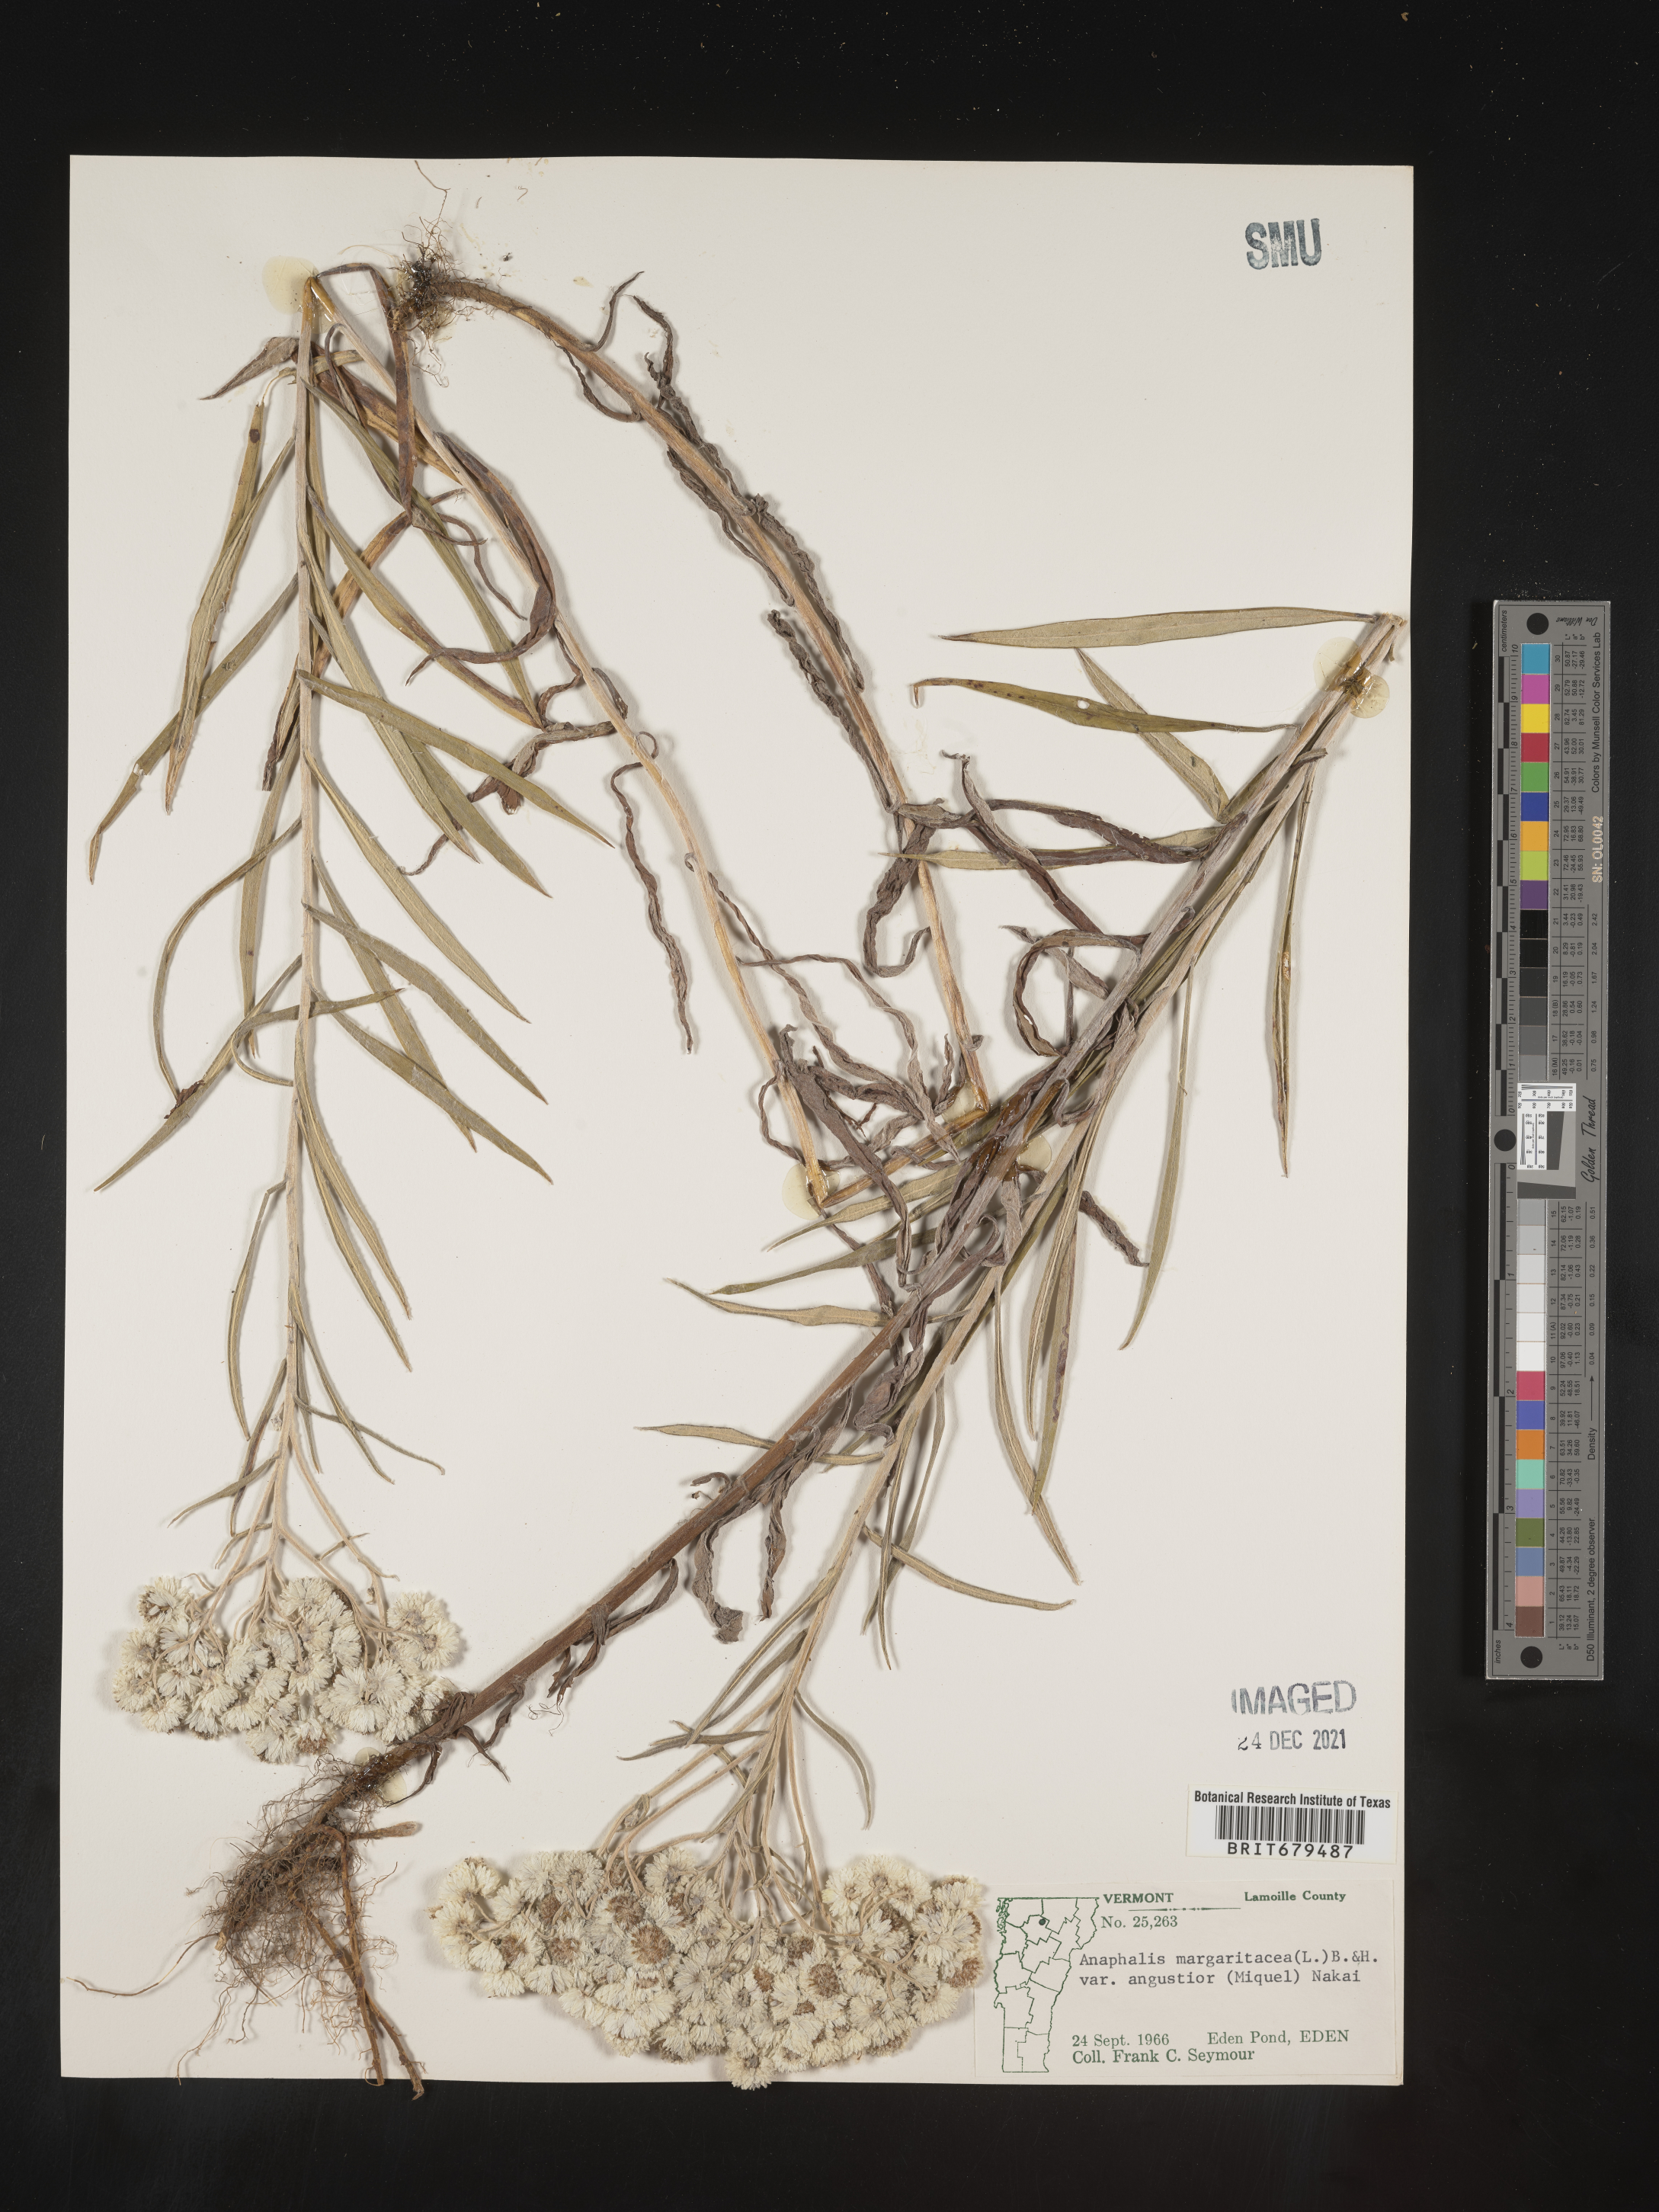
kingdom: Plantae
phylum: Tracheophyta
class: Magnoliopsida
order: Asterales
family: Asteraceae
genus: Anaphalis
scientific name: Anaphalis margaritacea
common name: Pearly everlasting
